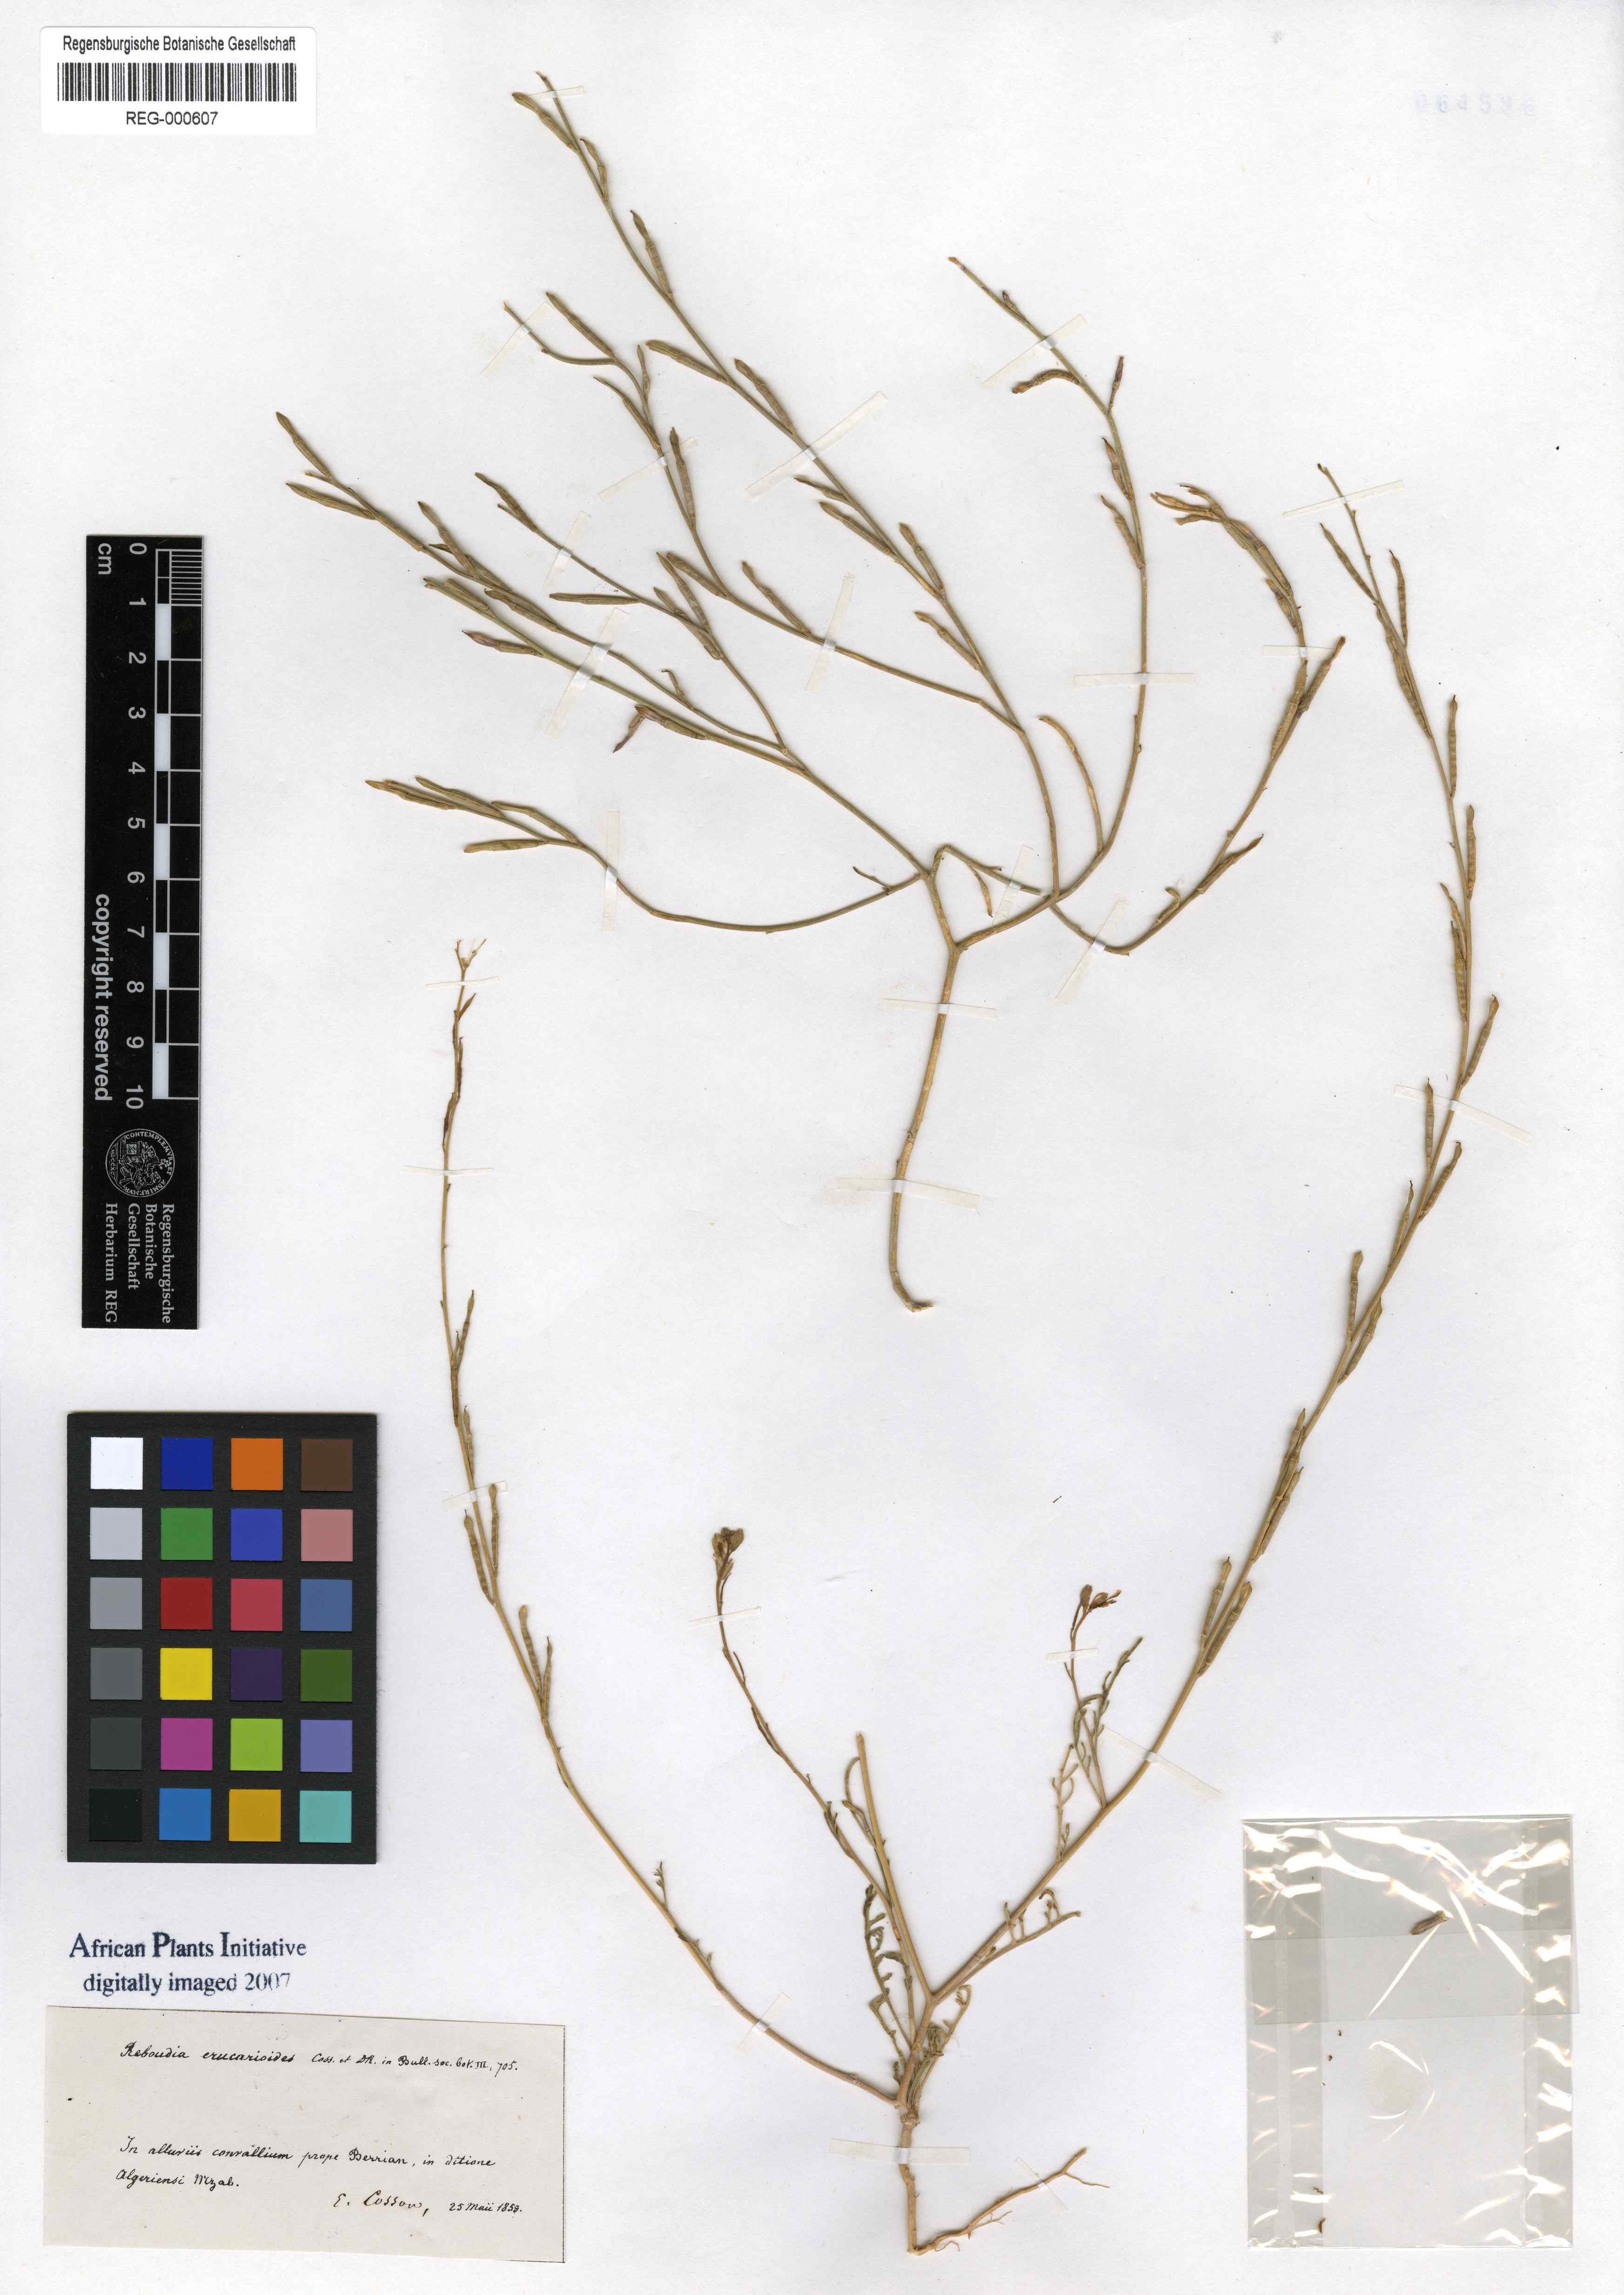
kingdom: Plantae
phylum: Tracheophyta
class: Magnoliopsida
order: Brassicales
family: Brassicaceae
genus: Erucaria
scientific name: Erucaria erucarioides
